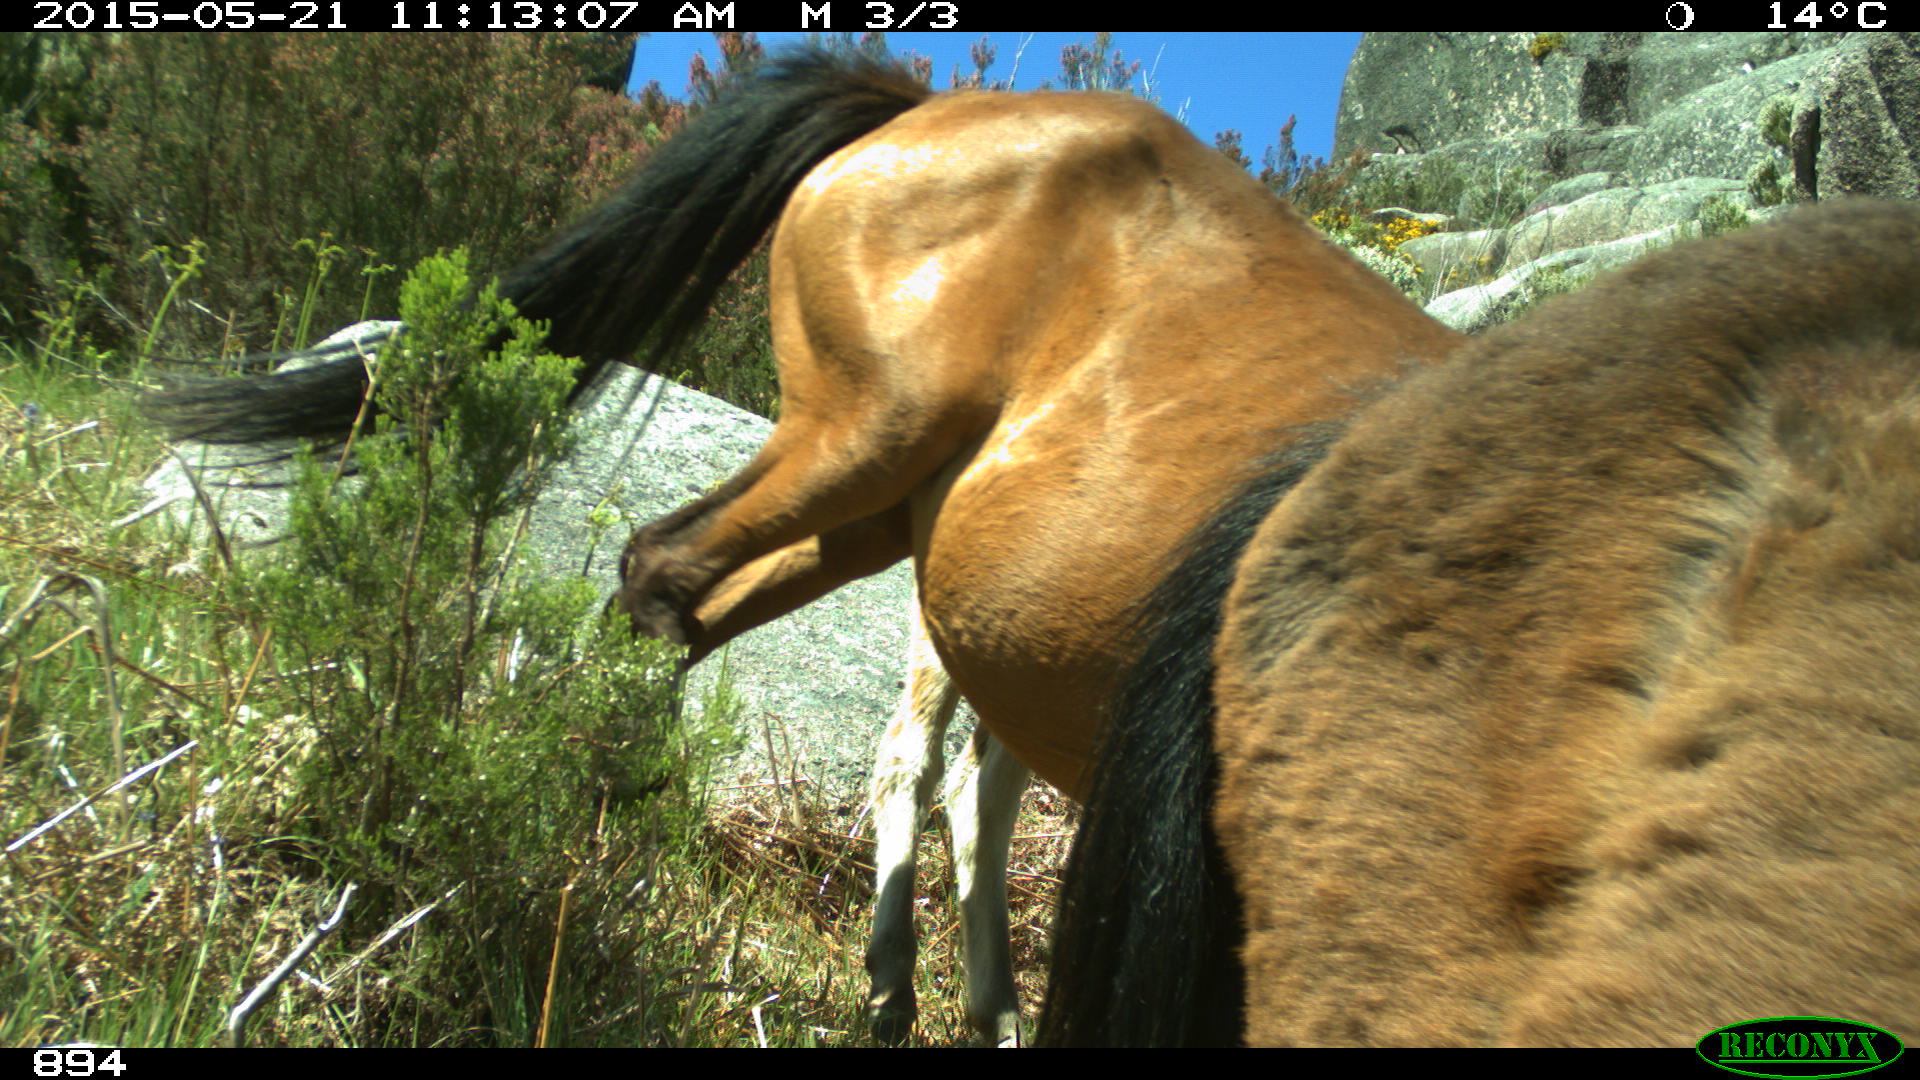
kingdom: Animalia
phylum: Chordata
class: Mammalia
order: Perissodactyla
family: Equidae
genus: Equus
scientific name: Equus caballus
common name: Horse
